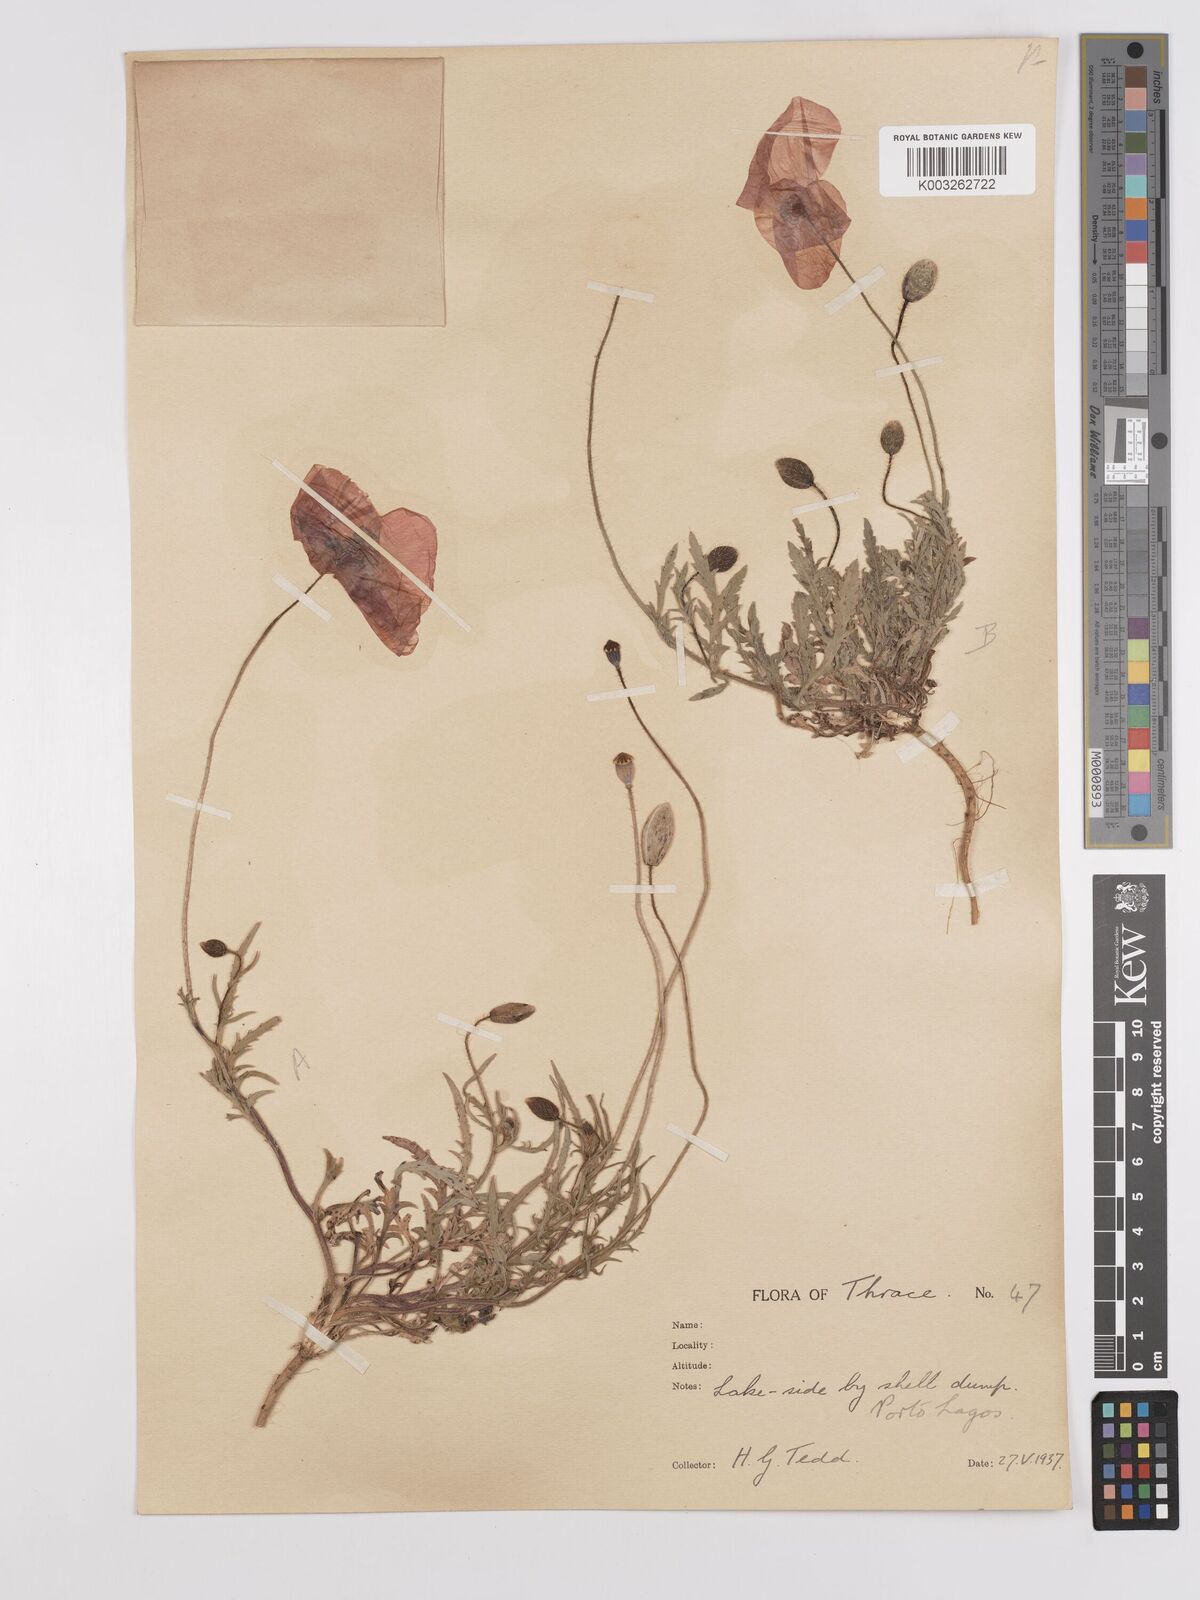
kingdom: Plantae
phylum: Tracheophyta
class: Magnoliopsida
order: Ranunculales
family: Papaveraceae
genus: Papaver
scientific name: Papaver
